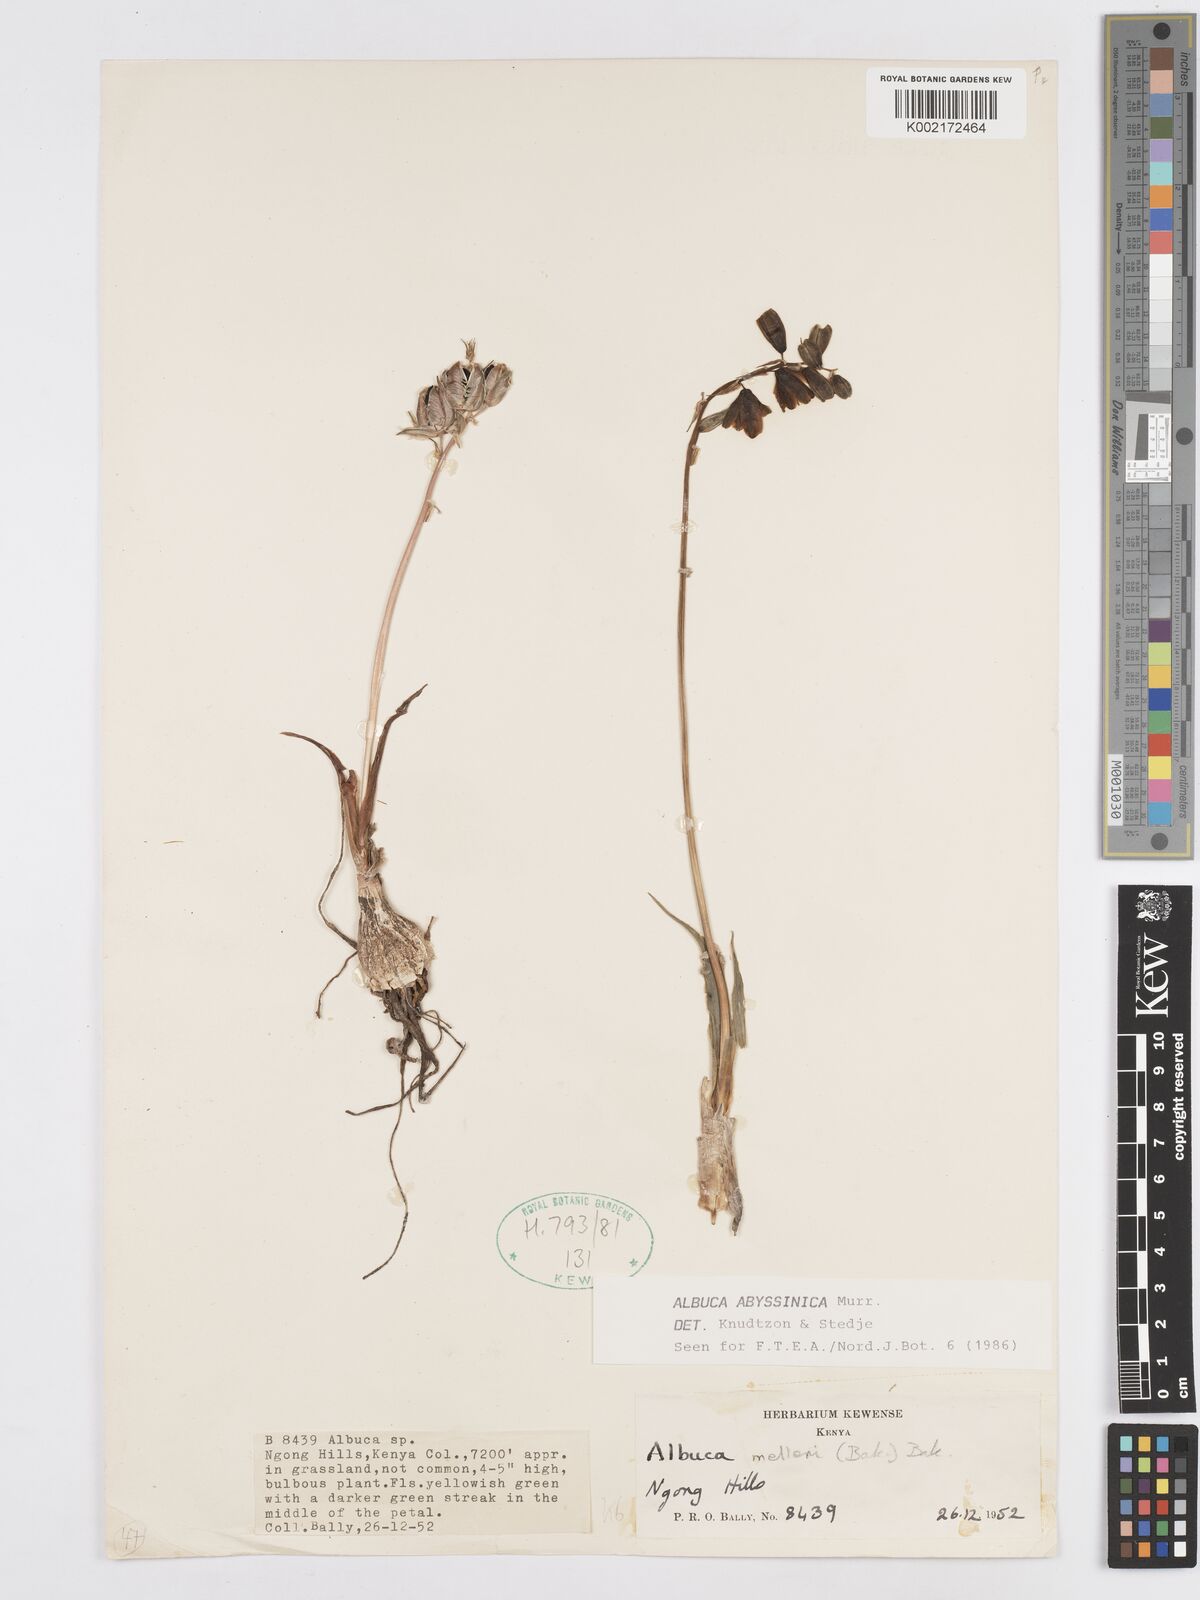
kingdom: Plantae
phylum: Tracheophyta
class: Liliopsida
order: Asparagales
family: Asparagaceae
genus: Albuca
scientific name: Albuca abyssinica
